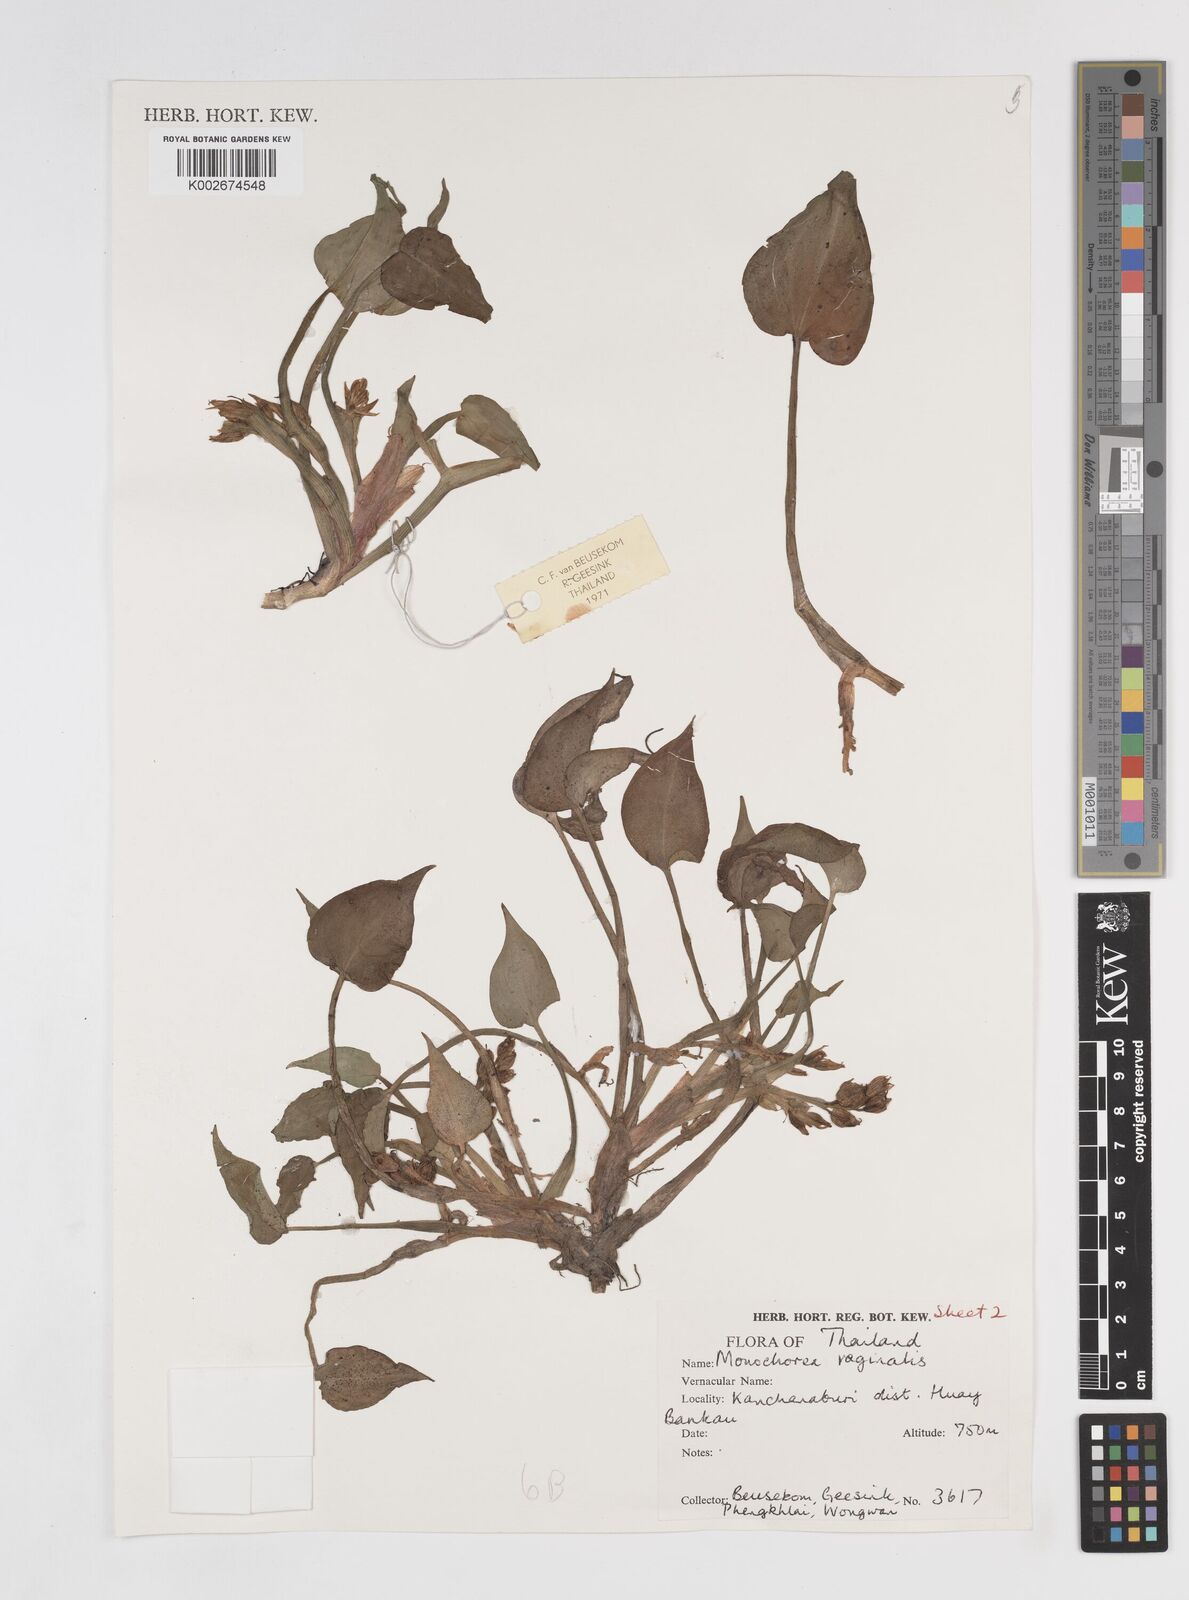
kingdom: Plantae
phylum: Tracheophyta
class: Liliopsida
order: Commelinales
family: Pontederiaceae
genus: Pontederia
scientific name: Pontederia vaginalis
